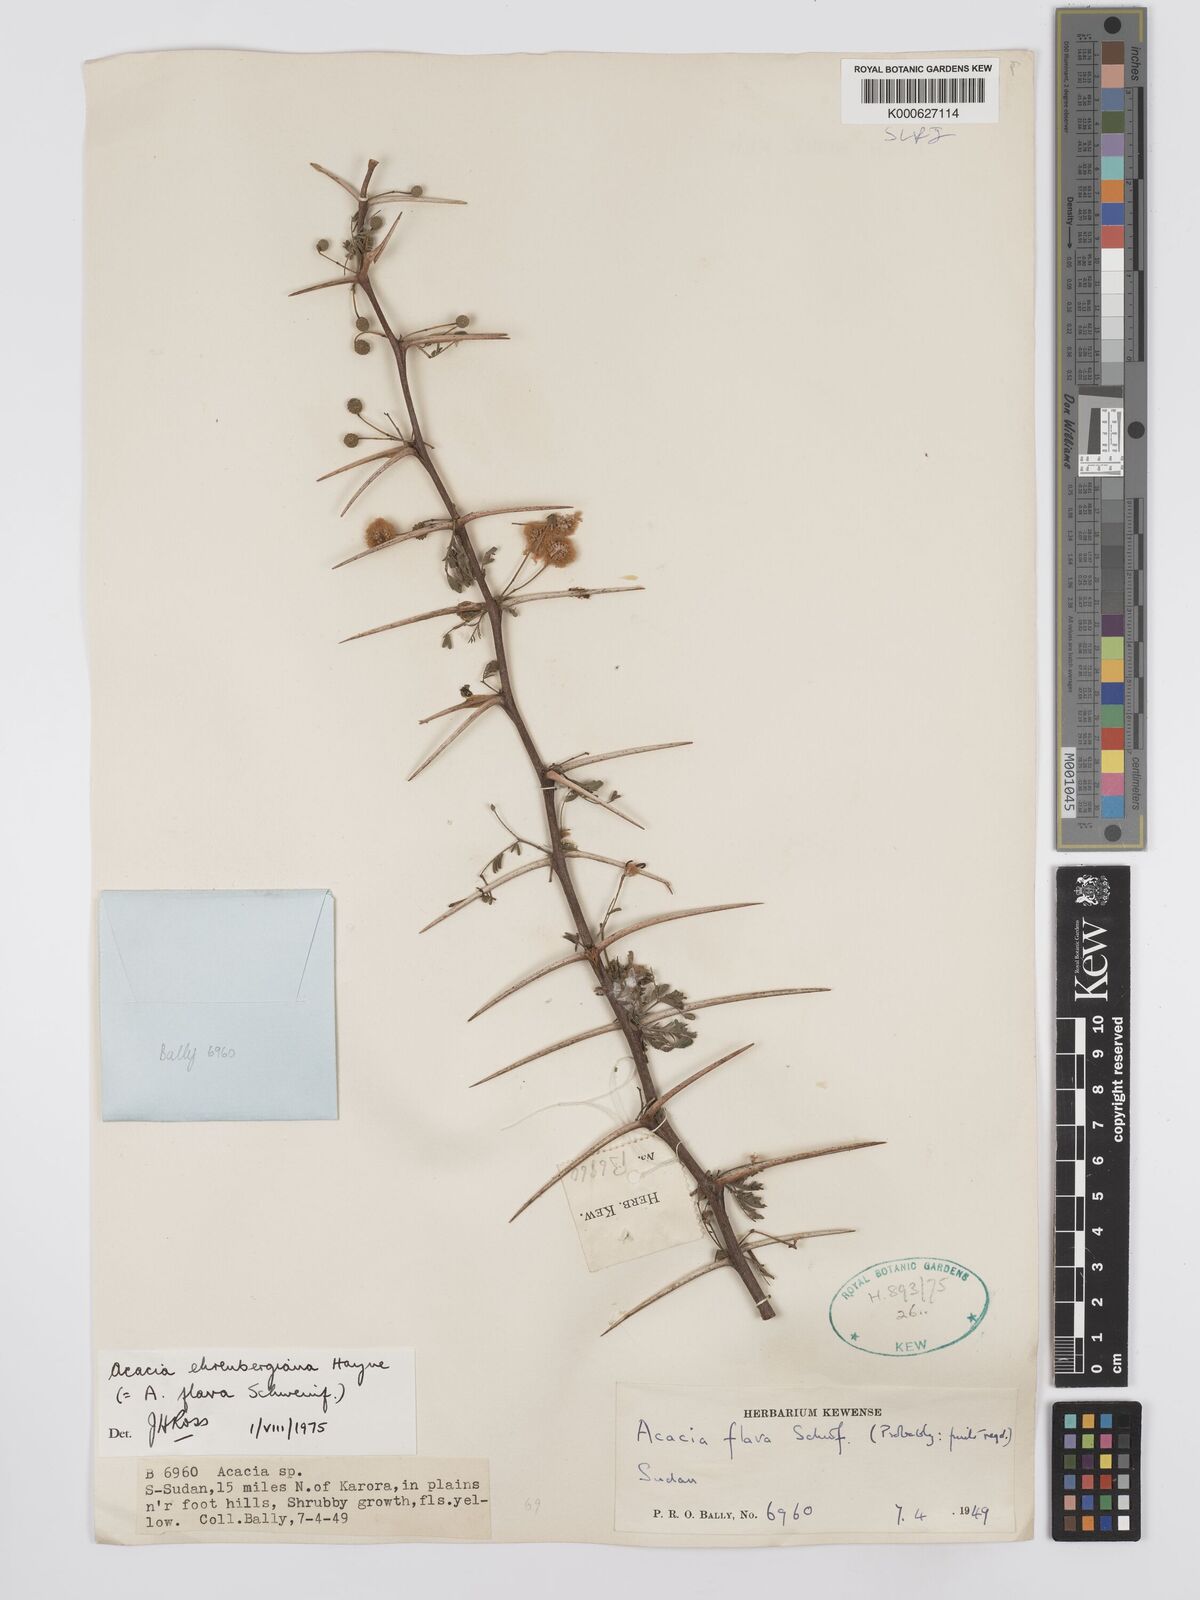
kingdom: Plantae
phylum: Tracheophyta
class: Magnoliopsida
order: Fabales
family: Fabaceae
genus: Vachellia
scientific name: Vachellia flava
